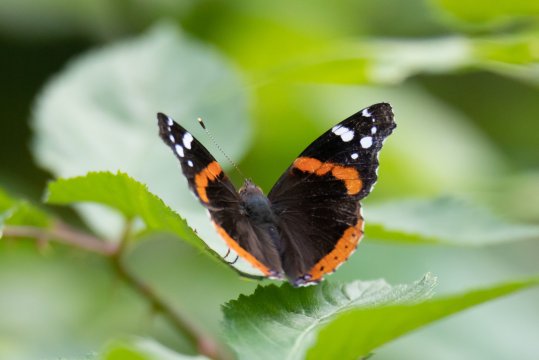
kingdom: Animalia
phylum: Arthropoda
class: Insecta
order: Lepidoptera
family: Nymphalidae
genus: Vanessa
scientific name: Vanessa atalanta
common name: Red Admiral
